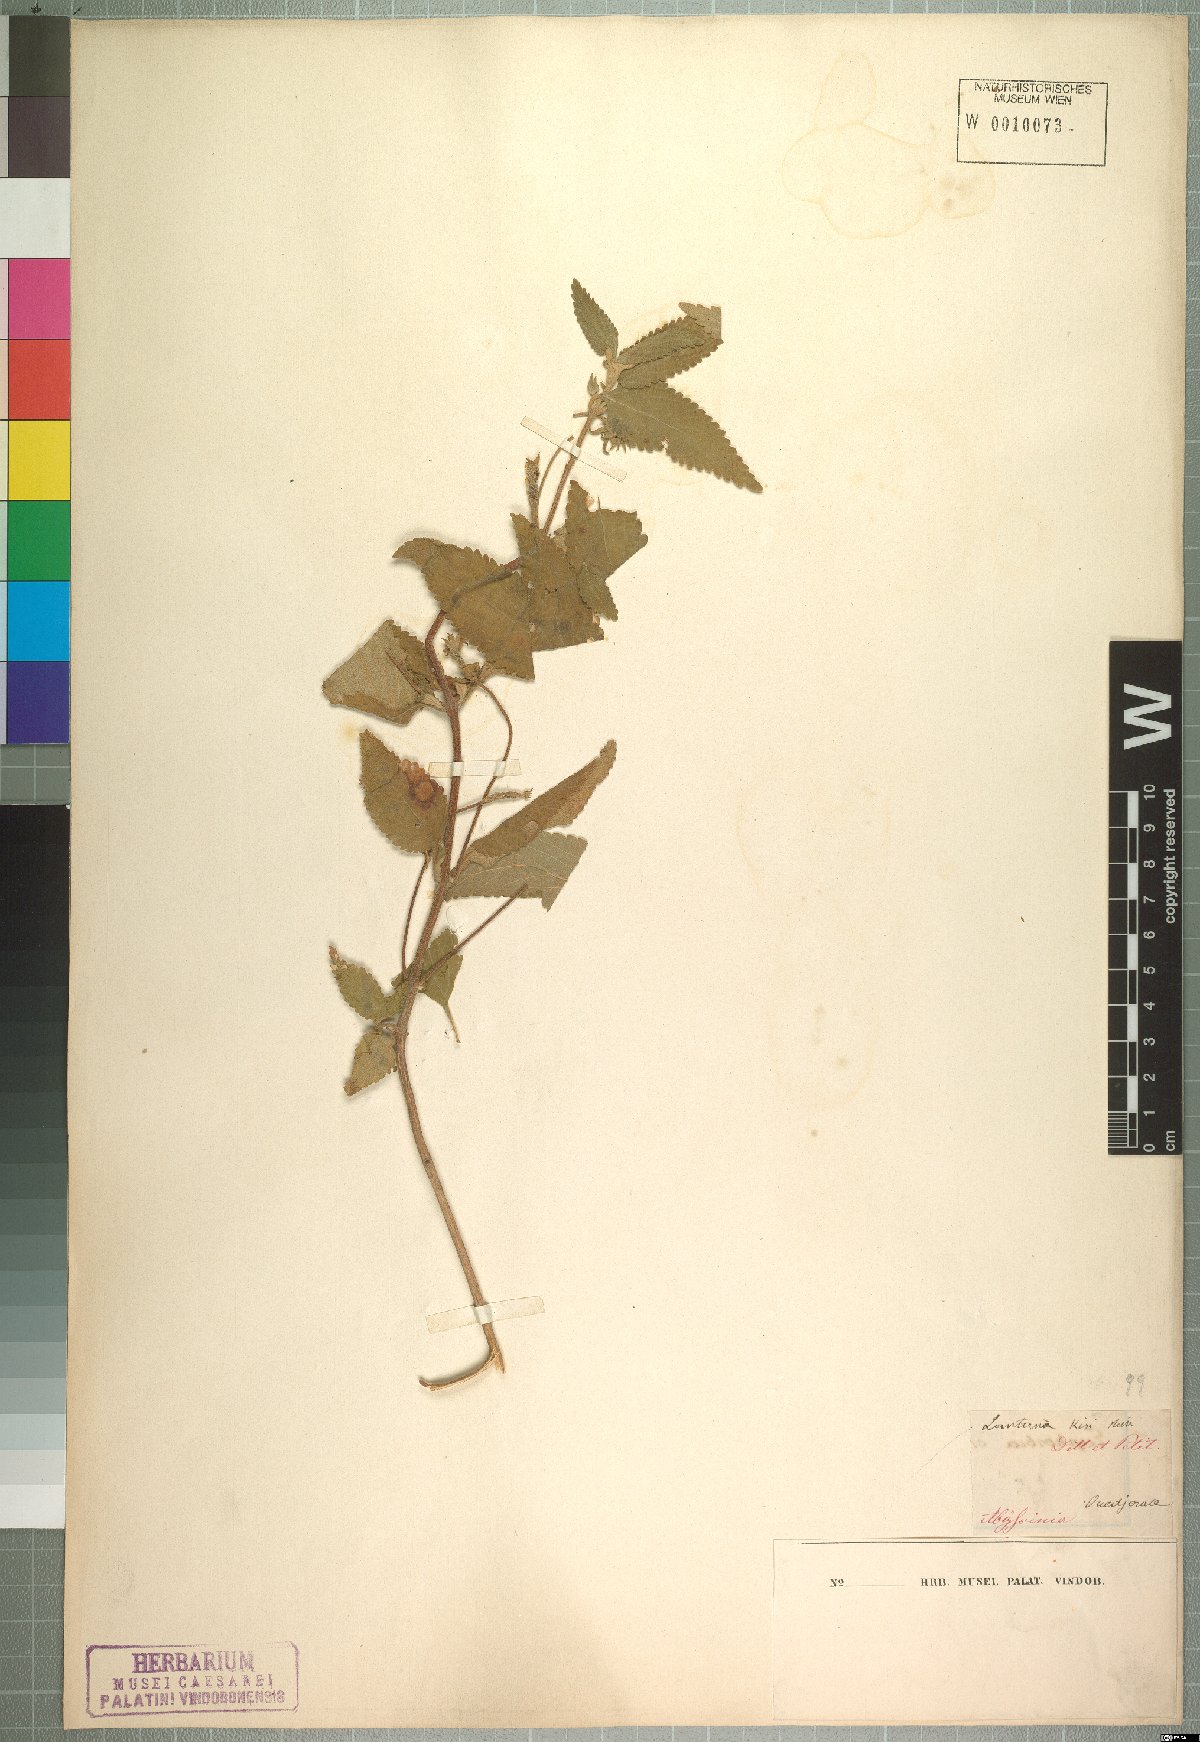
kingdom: Plantae
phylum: Tracheophyta
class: Magnoliopsida
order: Lamiales
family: Verbenaceae
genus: Lantana
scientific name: Lantana viburnoides
